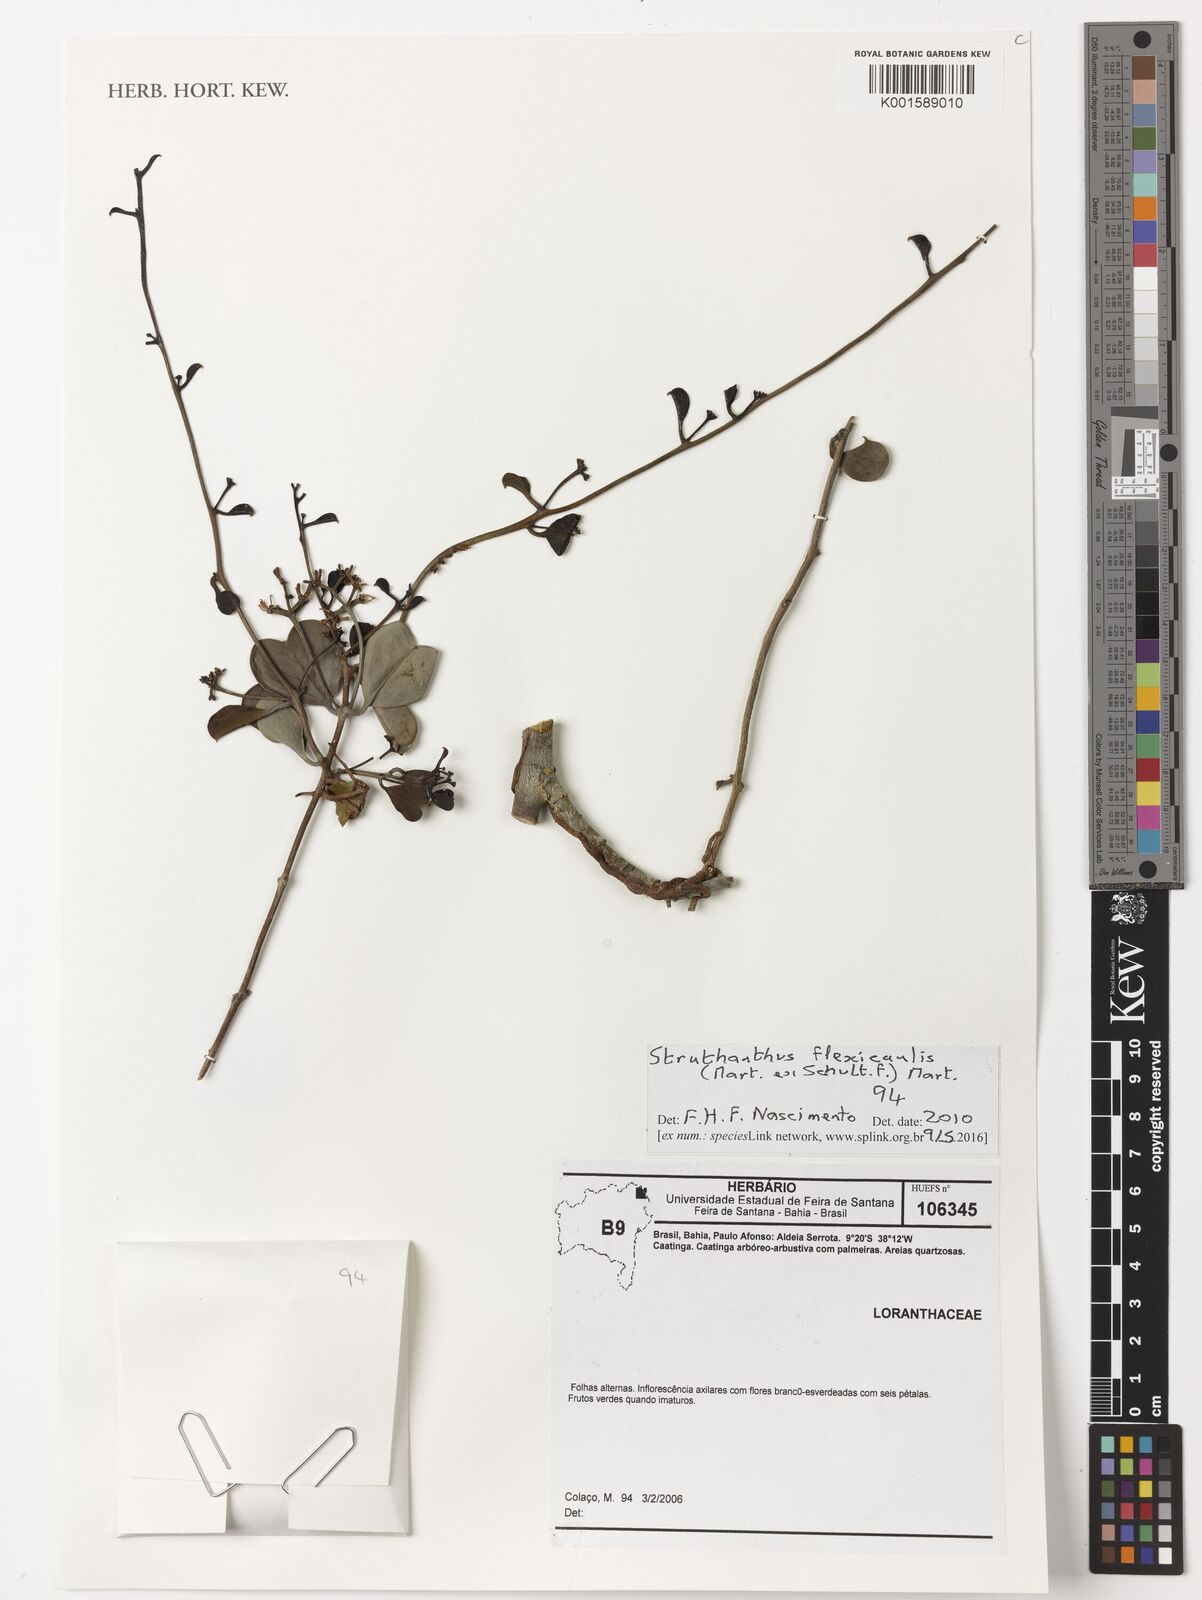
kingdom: Plantae
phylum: Tracheophyta
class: Magnoliopsida
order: Santalales
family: Loranthaceae
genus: Struthanthus
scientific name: Struthanthus flexicaulis
